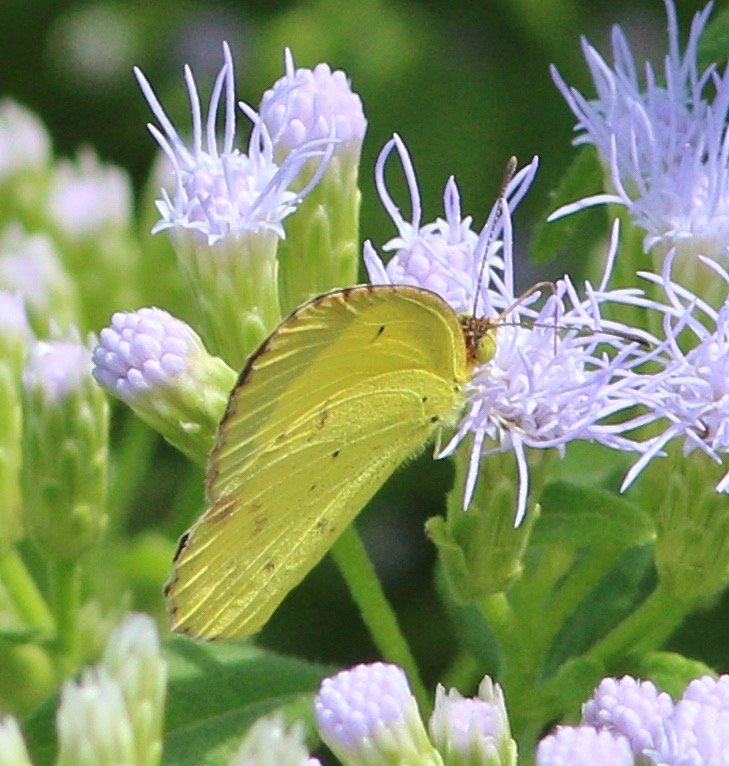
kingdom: Animalia
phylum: Arthropoda
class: Insecta
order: Lepidoptera
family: Pieridae
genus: Pyrisitia
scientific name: Pyrisitia lisa
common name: Little Yellow
